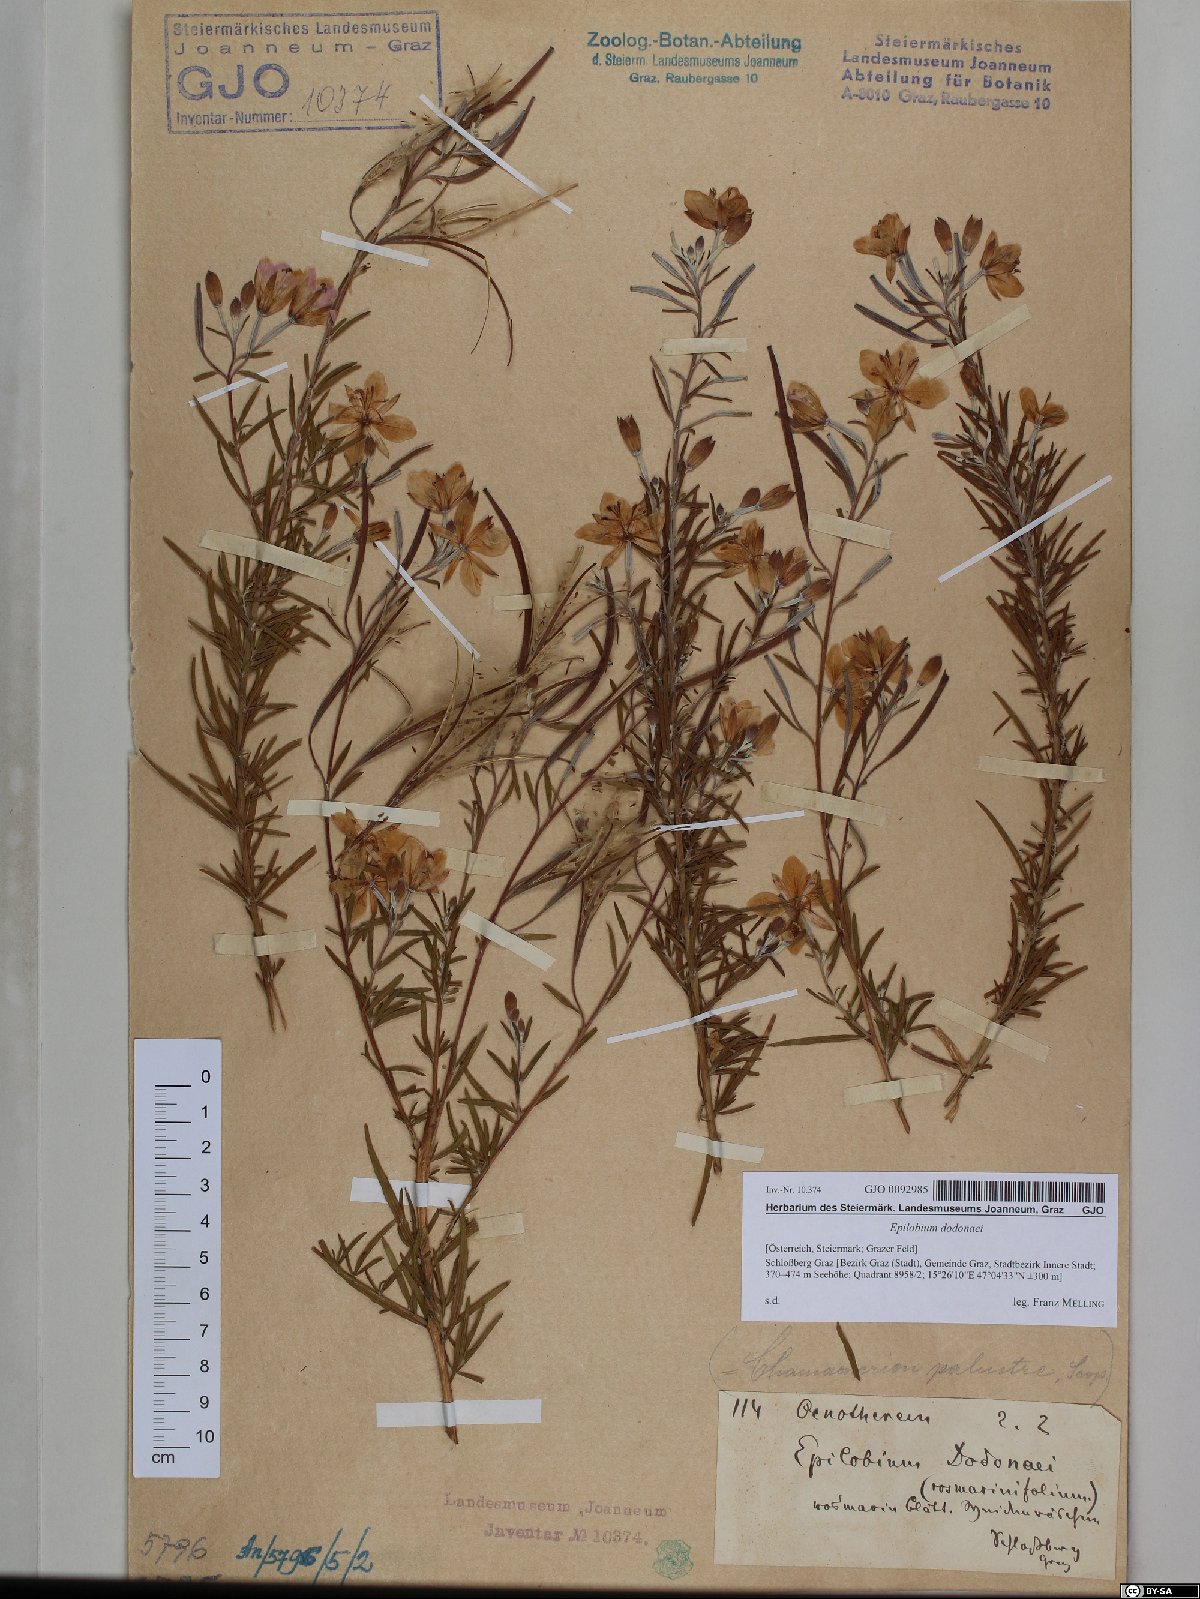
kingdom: Plantae
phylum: Tracheophyta
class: Magnoliopsida
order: Myrtales
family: Onagraceae
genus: Chamaenerion
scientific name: Chamaenerion dodonaei
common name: Rosemary-leaved willowherb
